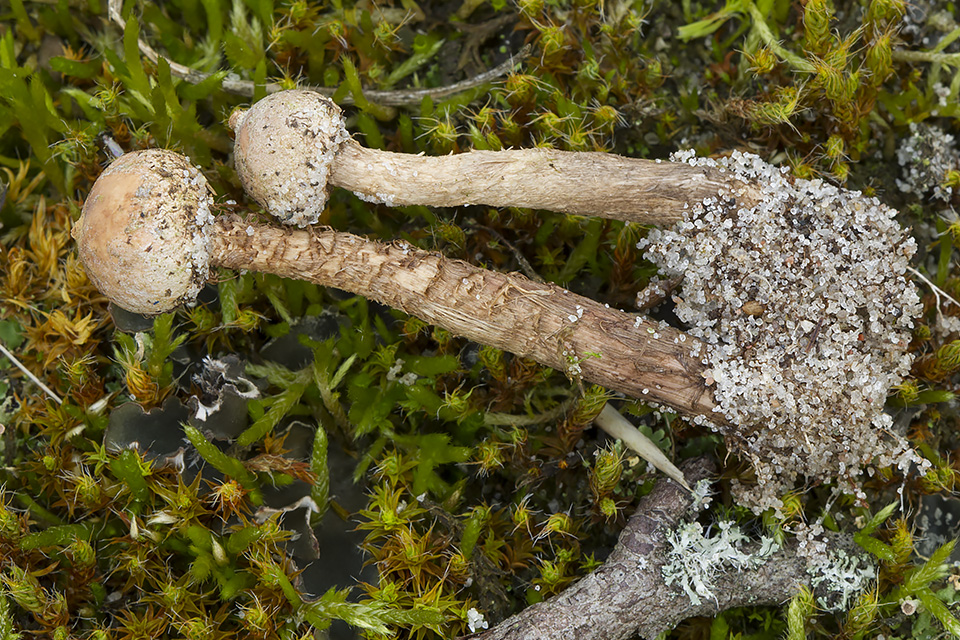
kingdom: Fungi
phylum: Basidiomycota
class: Agaricomycetes
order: Agaricales
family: Agaricaceae
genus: Tulostoma
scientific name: Tulostoma brumale
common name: vinter-stilkbovist
